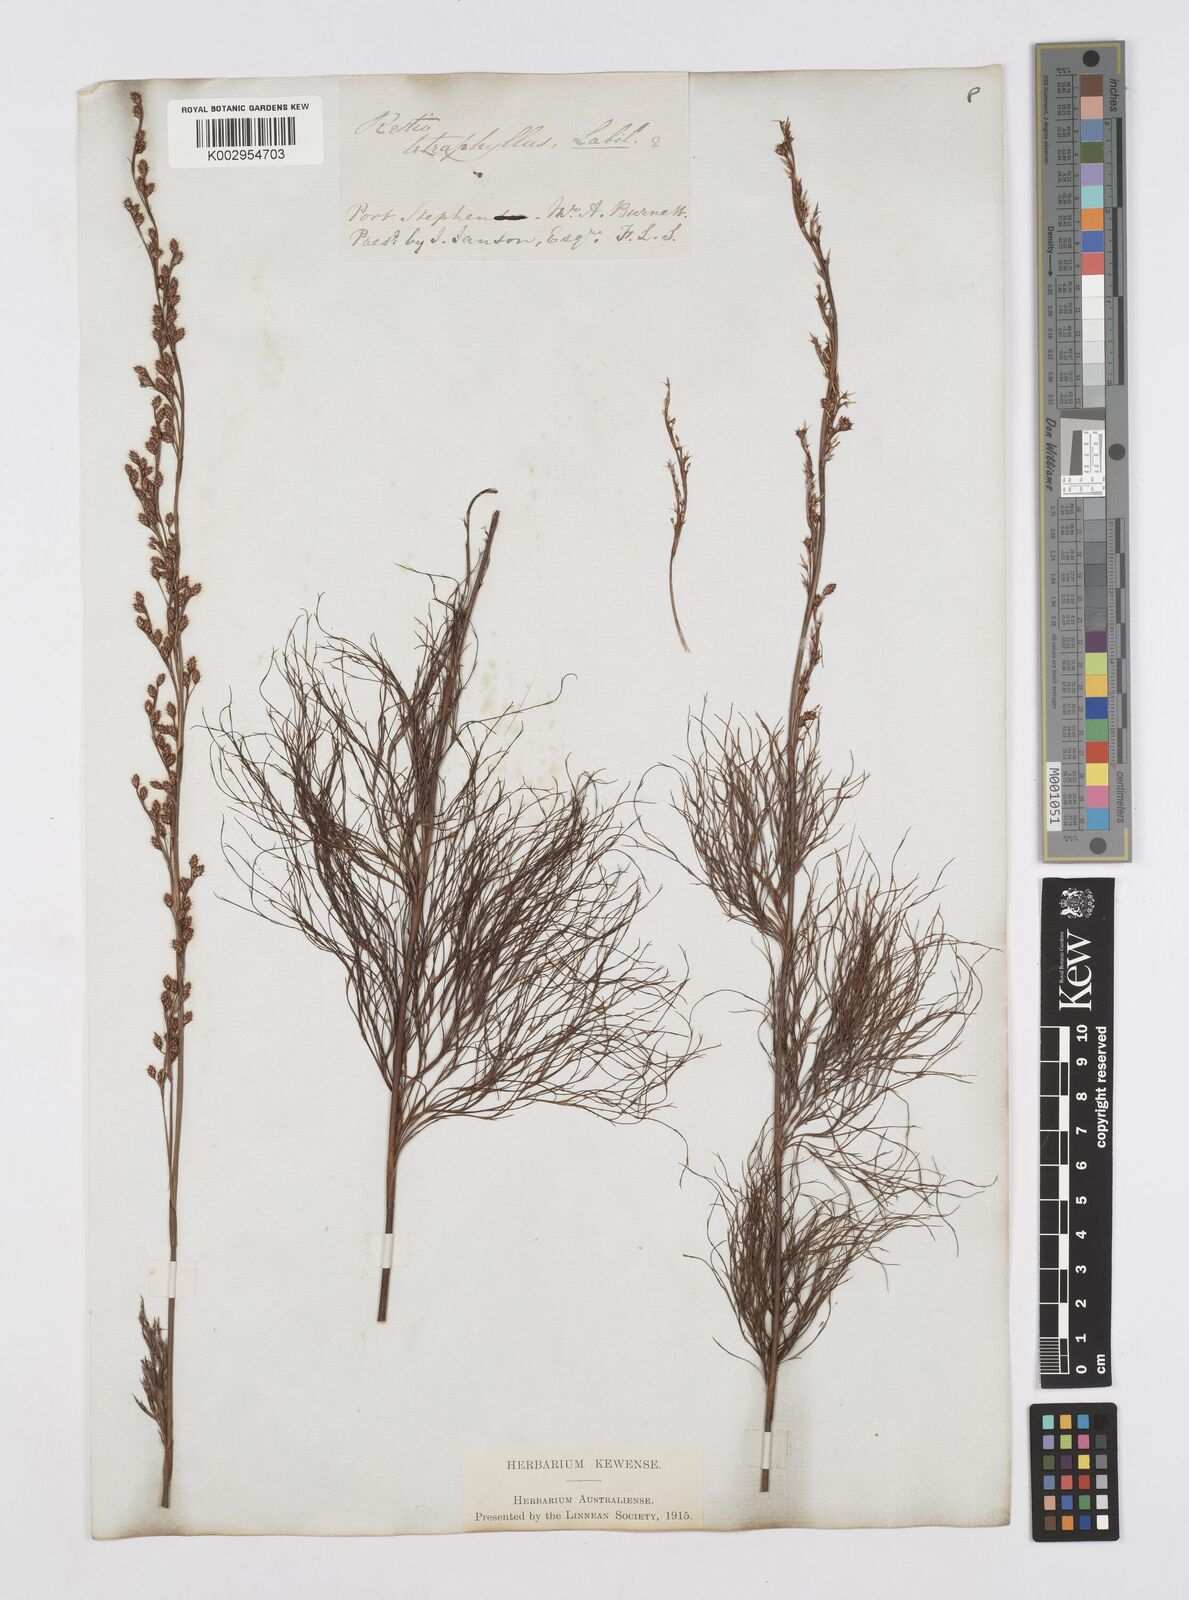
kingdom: Plantae
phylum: Tracheophyta
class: Liliopsida
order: Poales
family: Restionaceae
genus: Baloskion
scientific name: Baloskion tetraphyllum
